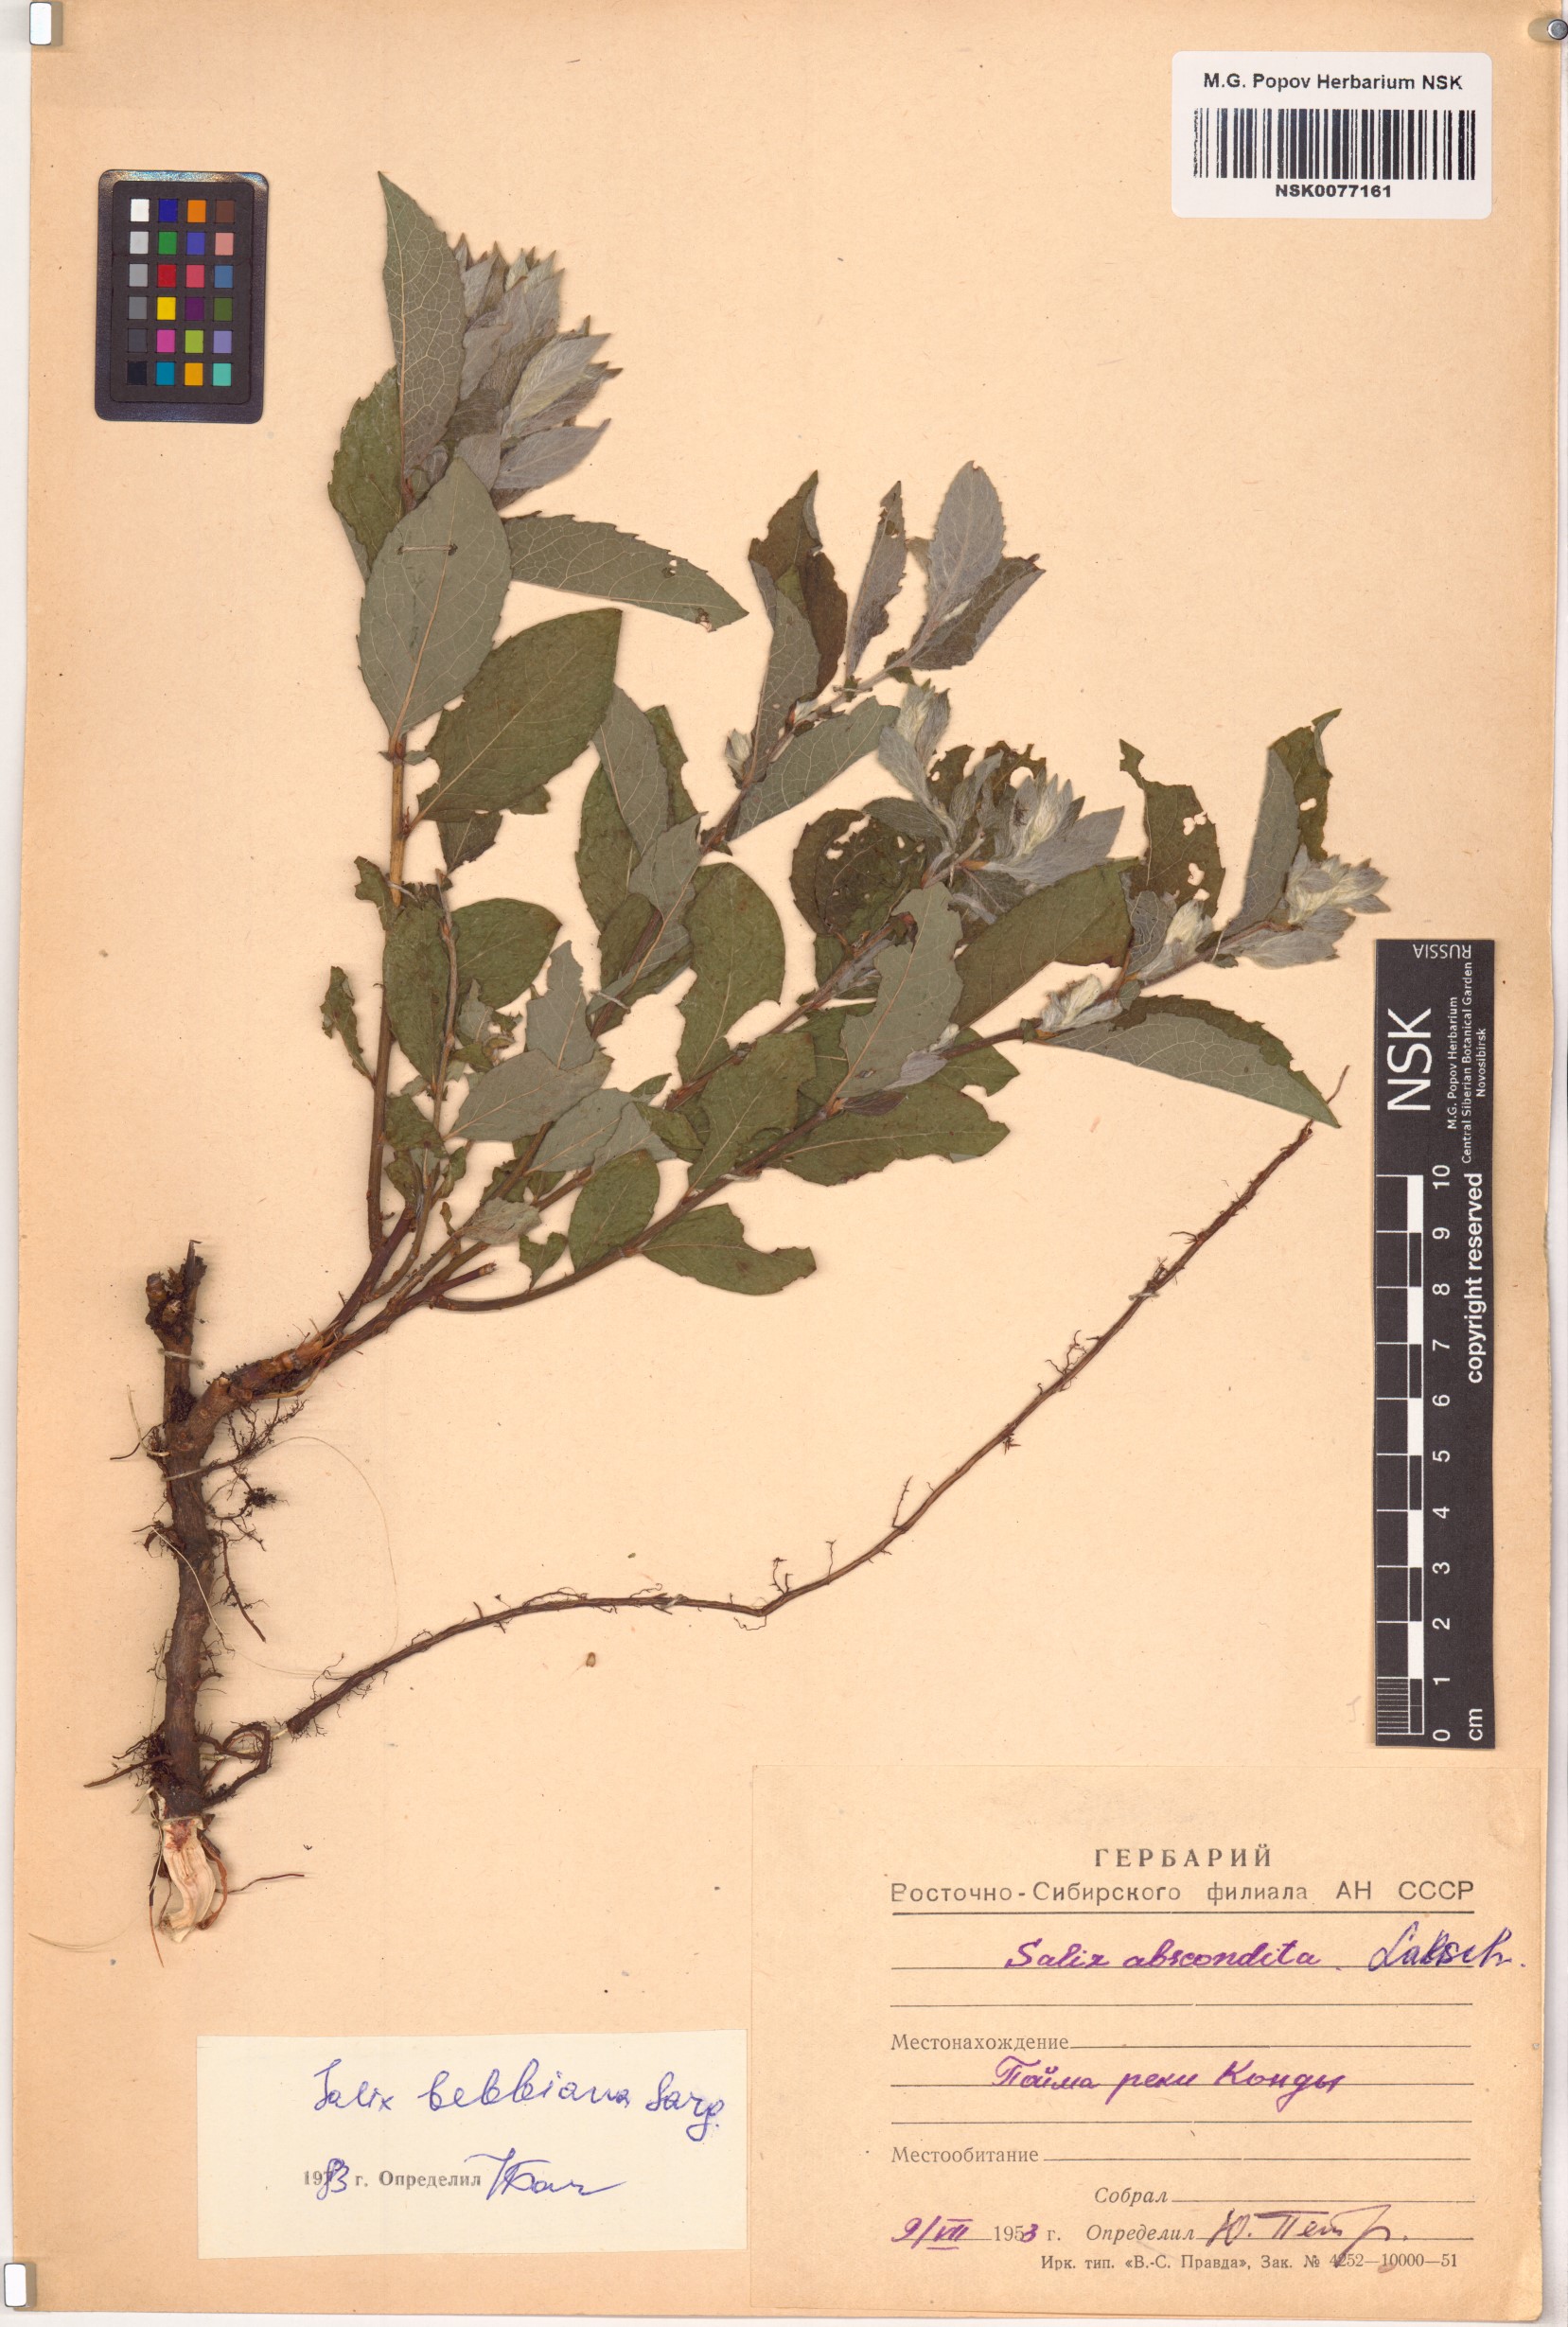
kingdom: Plantae
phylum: Tracheophyta
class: Magnoliopsida
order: Malpighiales
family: Salicaceae
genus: Salix
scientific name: Salix bebbiana
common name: Bebb's willow
